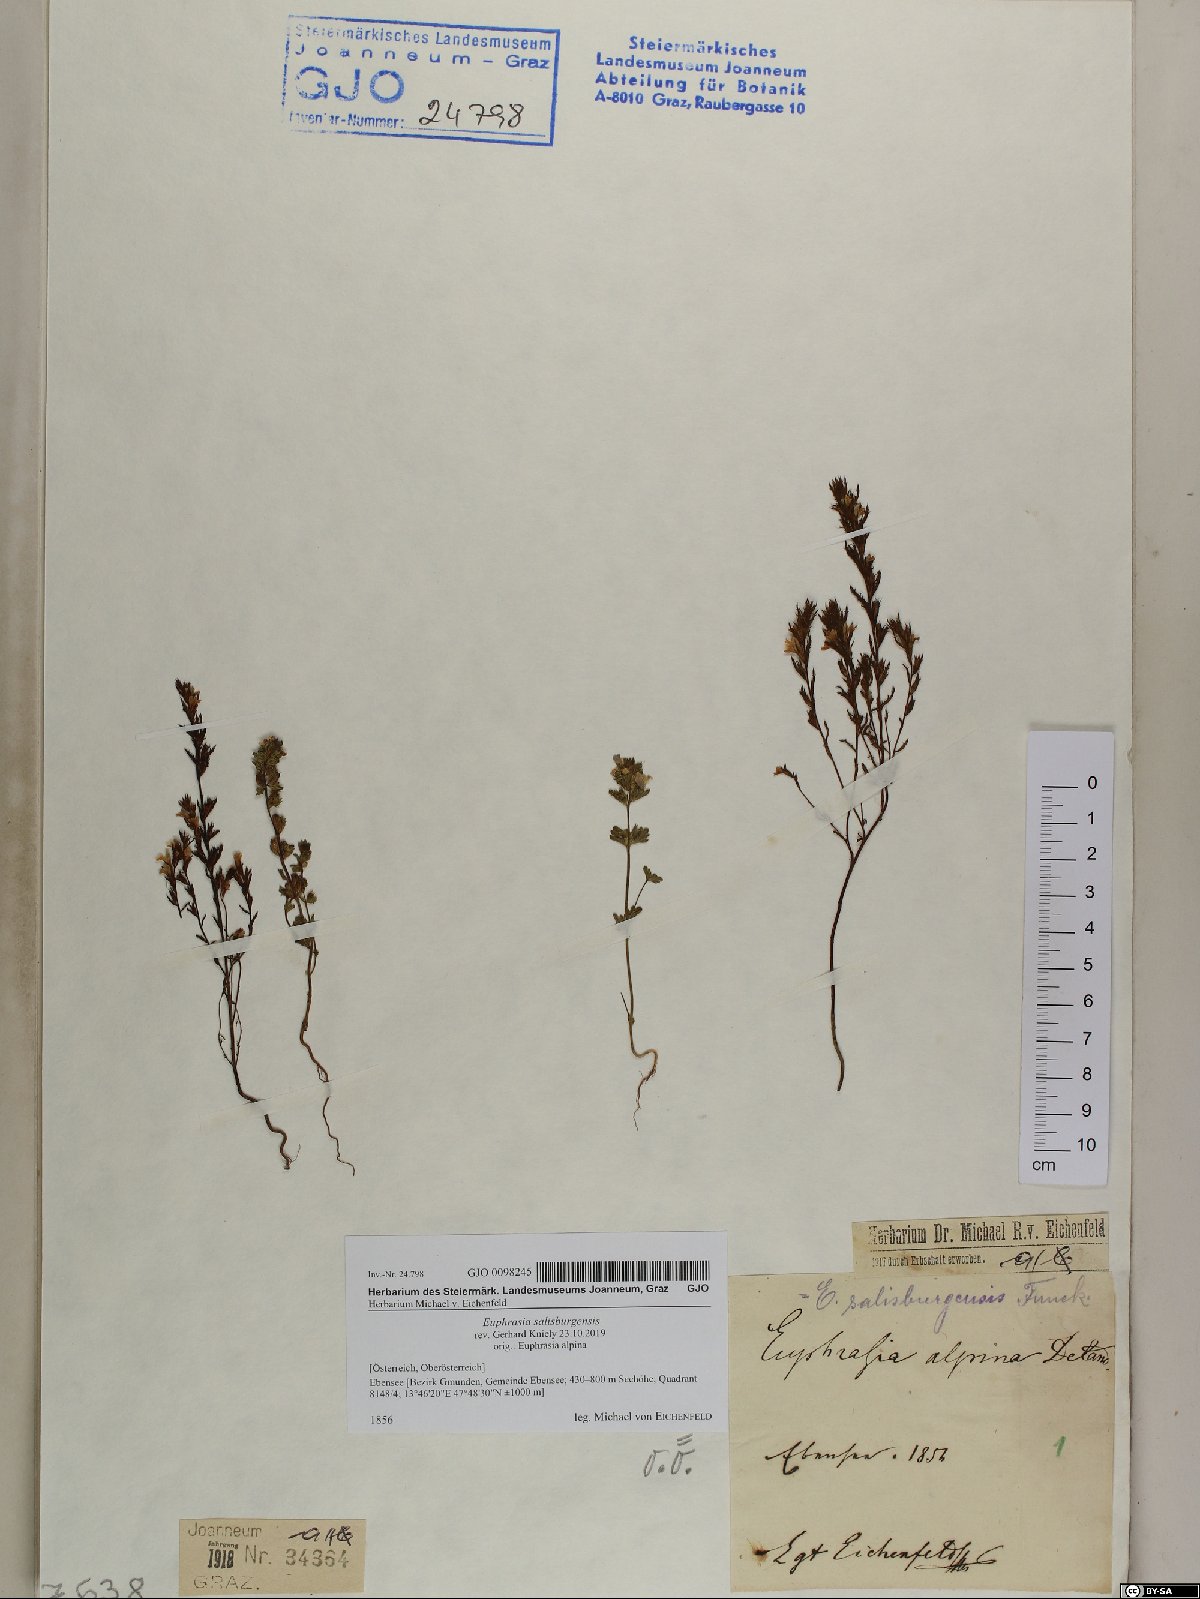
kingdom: Plantae
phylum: Tracheophyta
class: Magnoliopsida
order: Lamiales
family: Orobanchaceae
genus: Euphrasia
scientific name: Euphrasia salisburgensis
